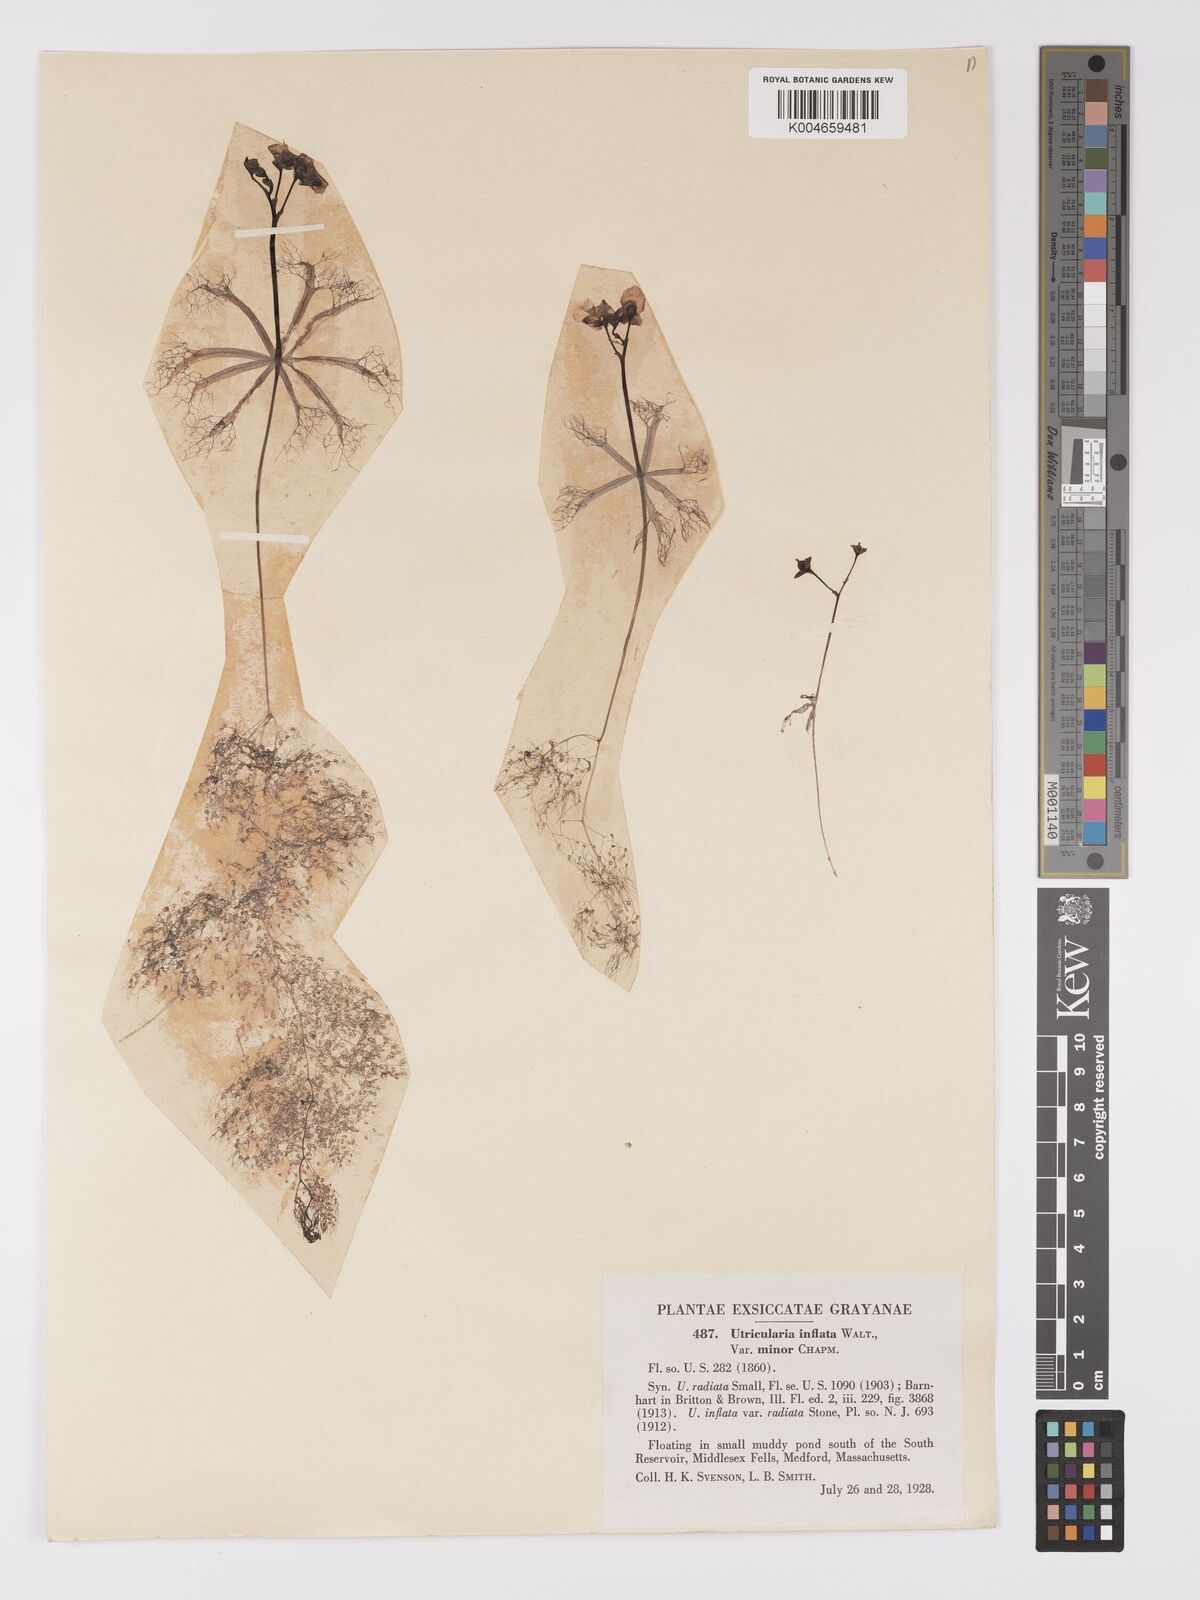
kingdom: Plantae
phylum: Tracheophyta
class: Magnoliopsida
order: Lamiales
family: Lentibulariaceae
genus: Utricularia
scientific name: Utricularia radiata
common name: Floating bladderwort
